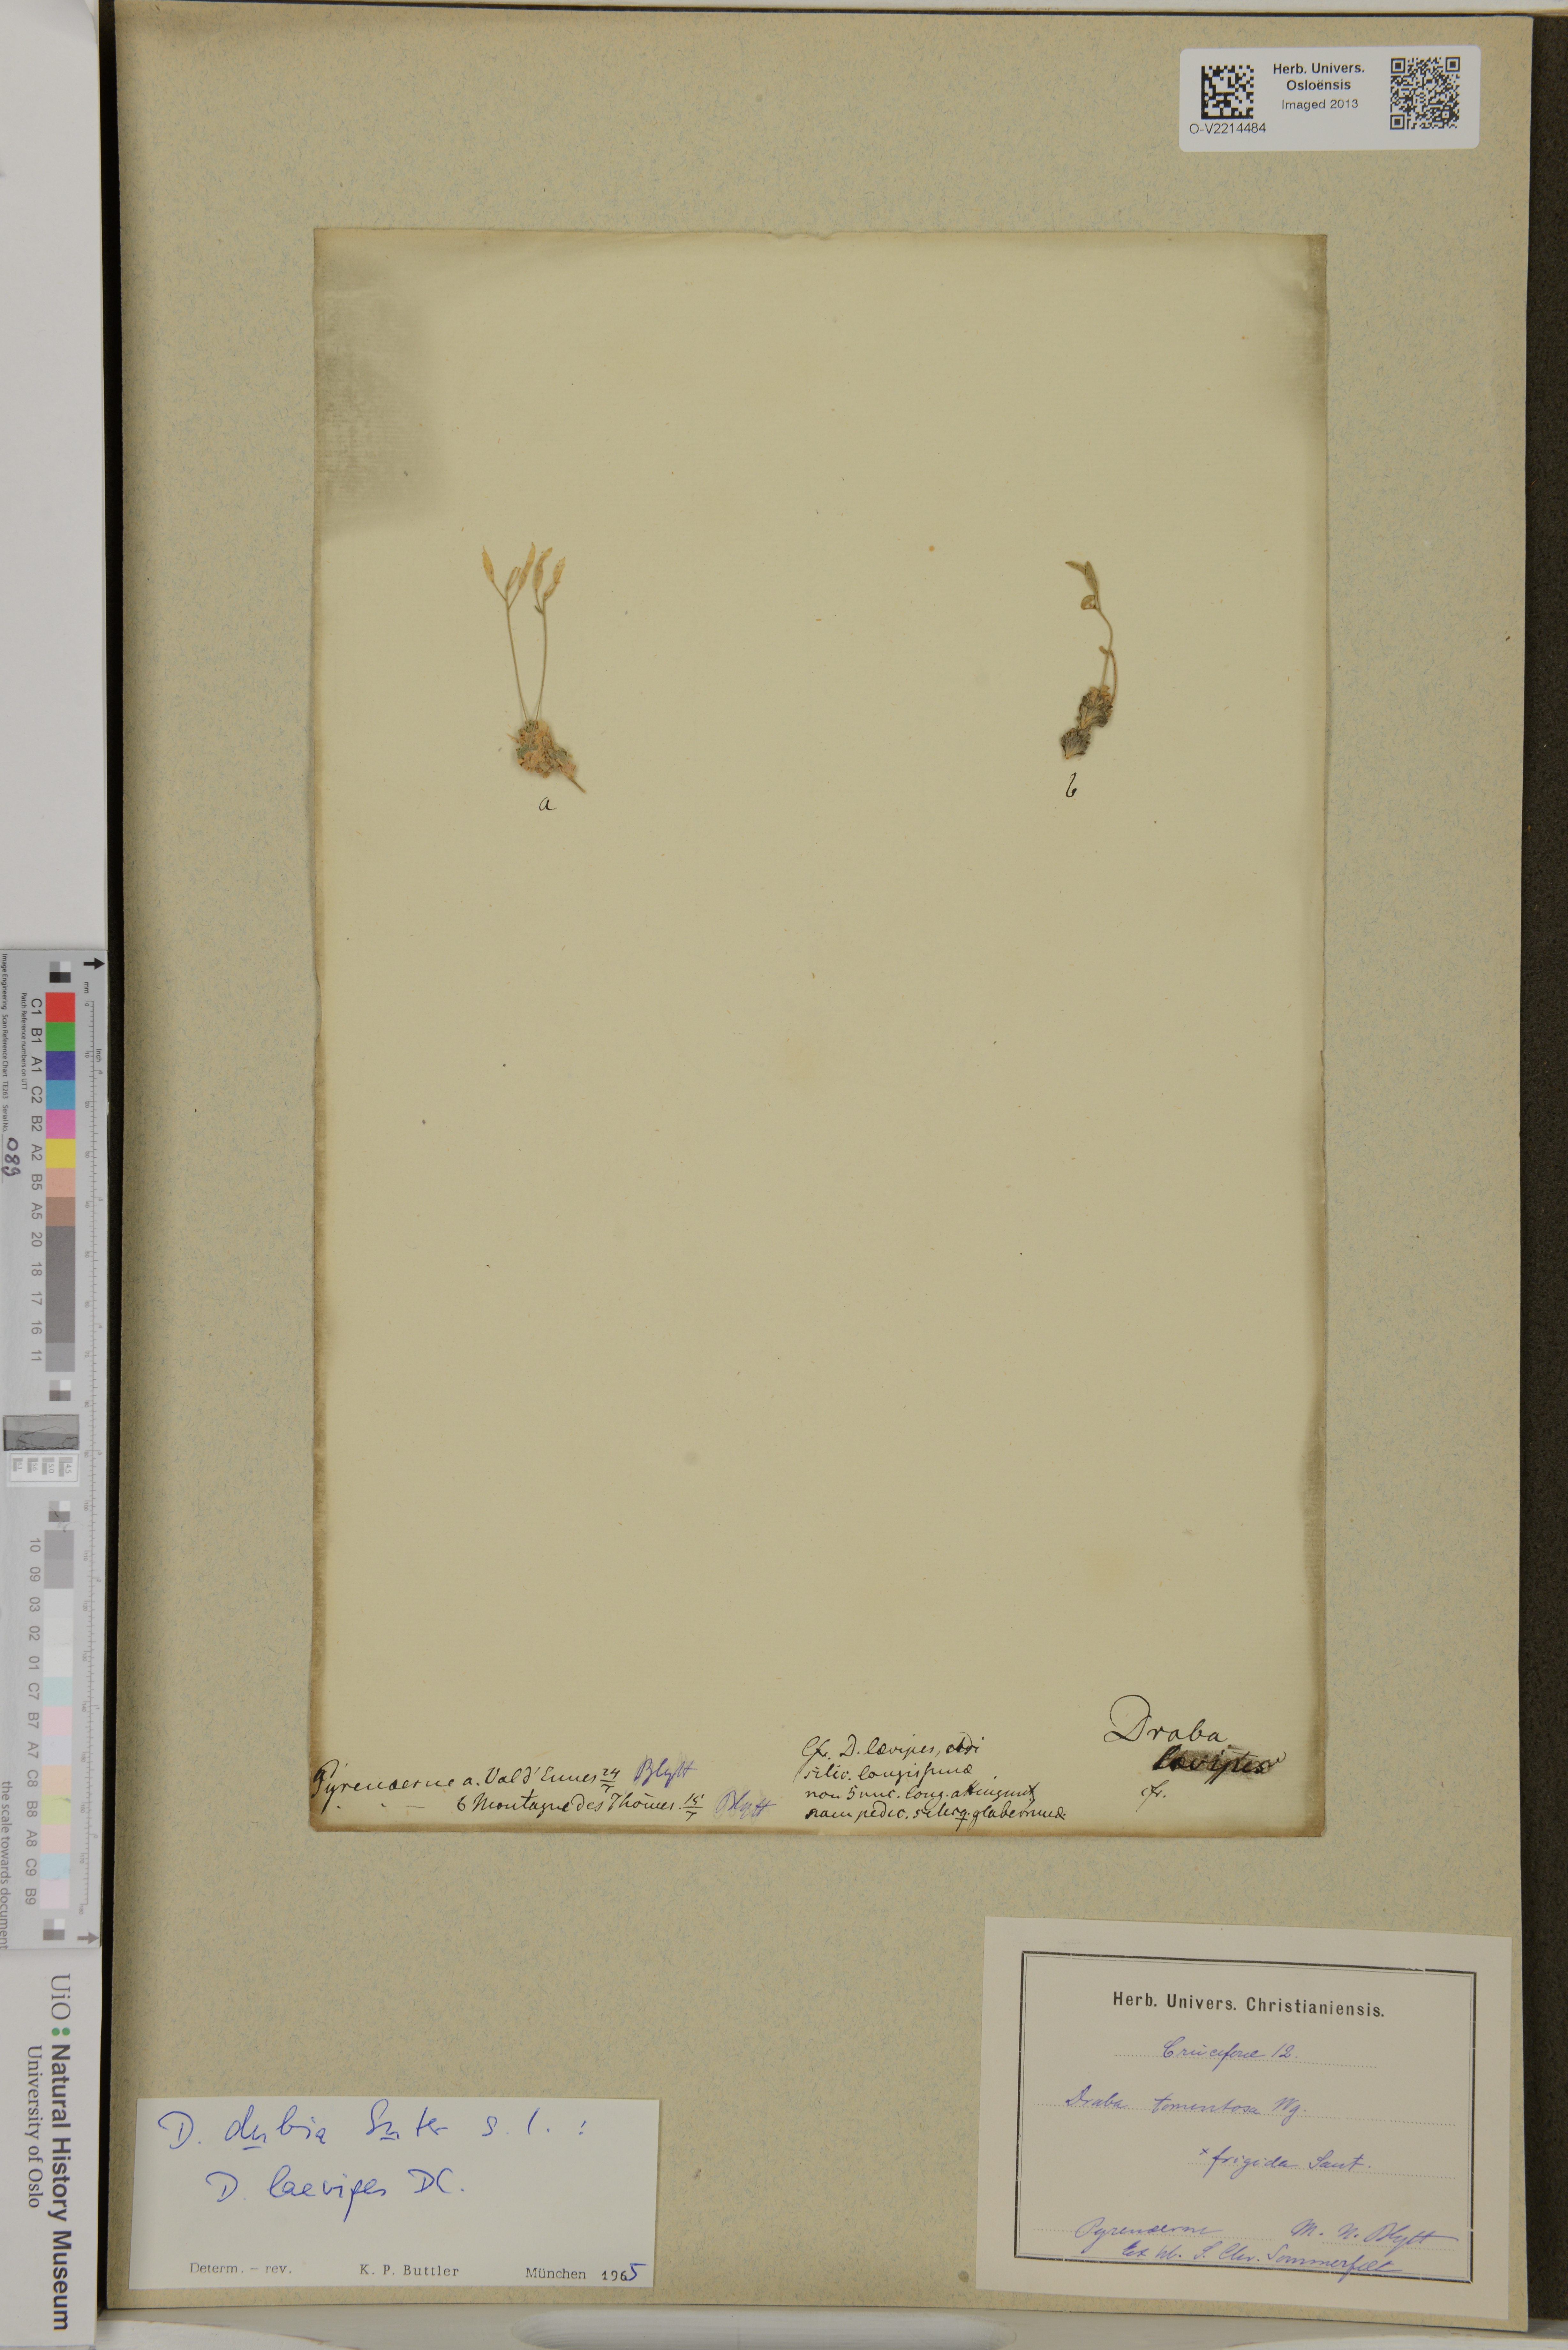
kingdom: Plantae
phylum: Tracheophyta
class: Magnoliopsida
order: Brassicales
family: Brassicaceae
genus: Draba
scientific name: Draba dubia
